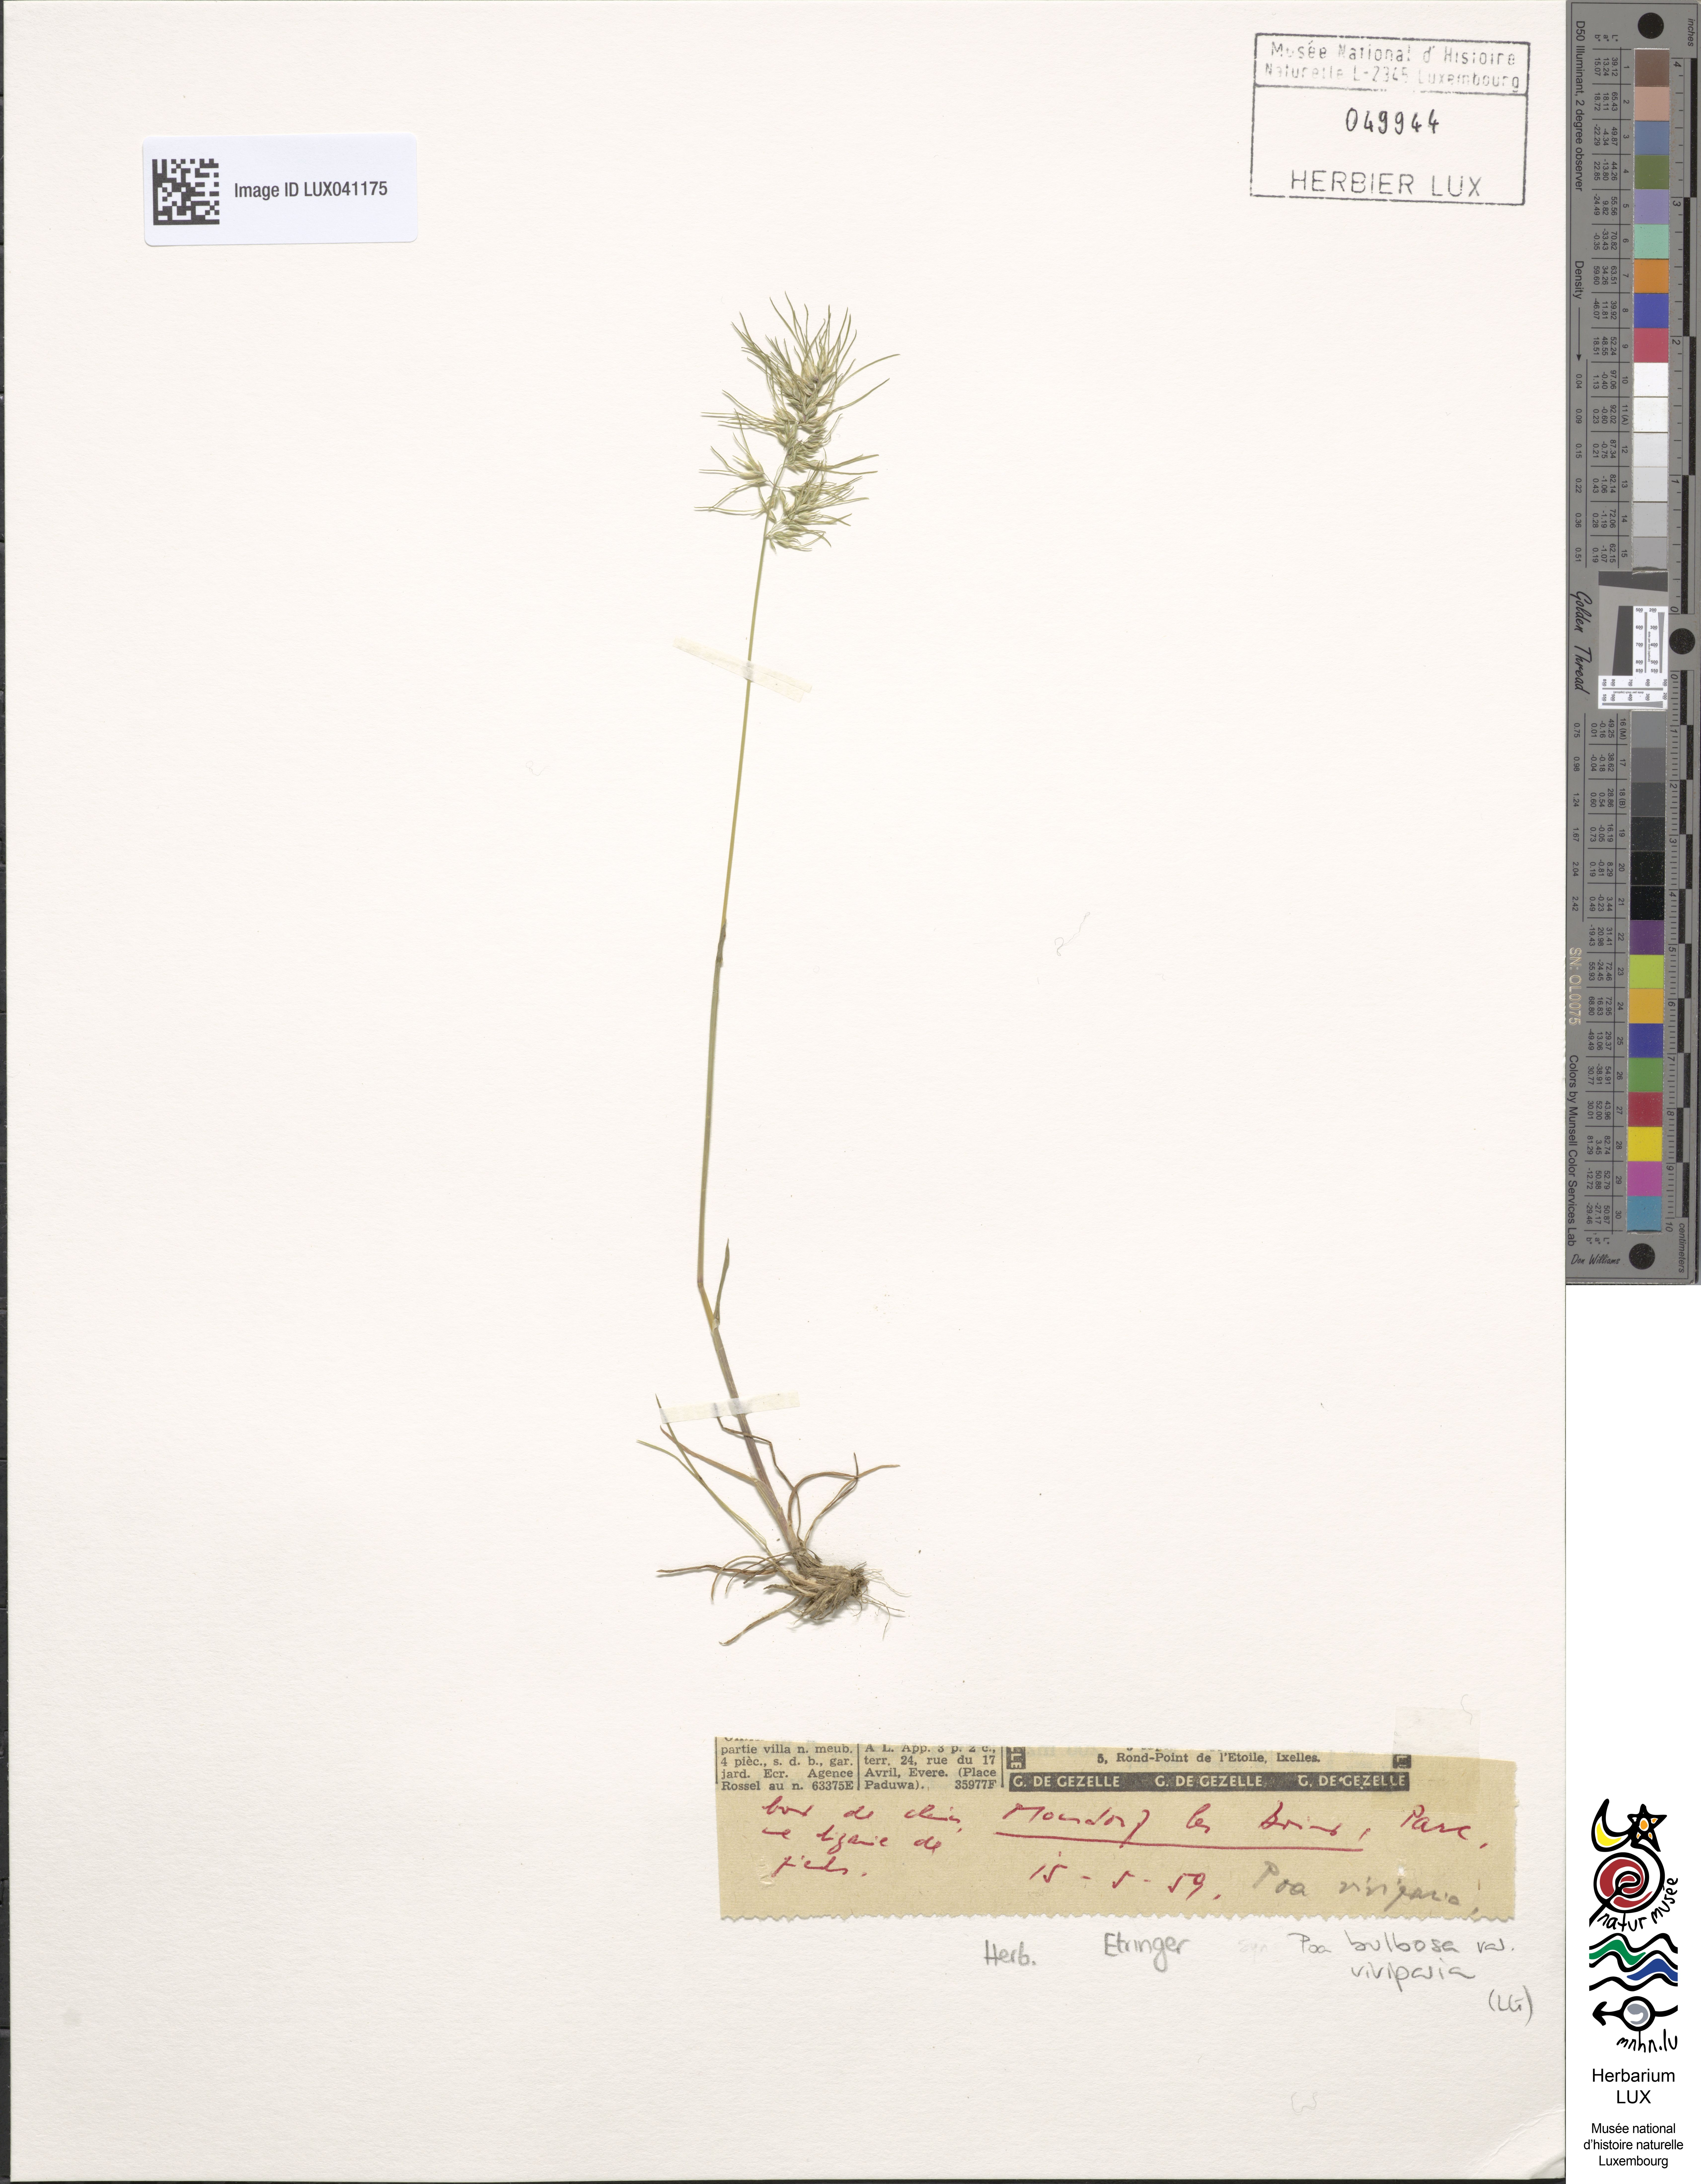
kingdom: Plantae
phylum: Tracheophyta
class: Liliopsida
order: Poales
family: Poaceae
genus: Poa
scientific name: Poa bulbosa
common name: Bulbous bluegrass
